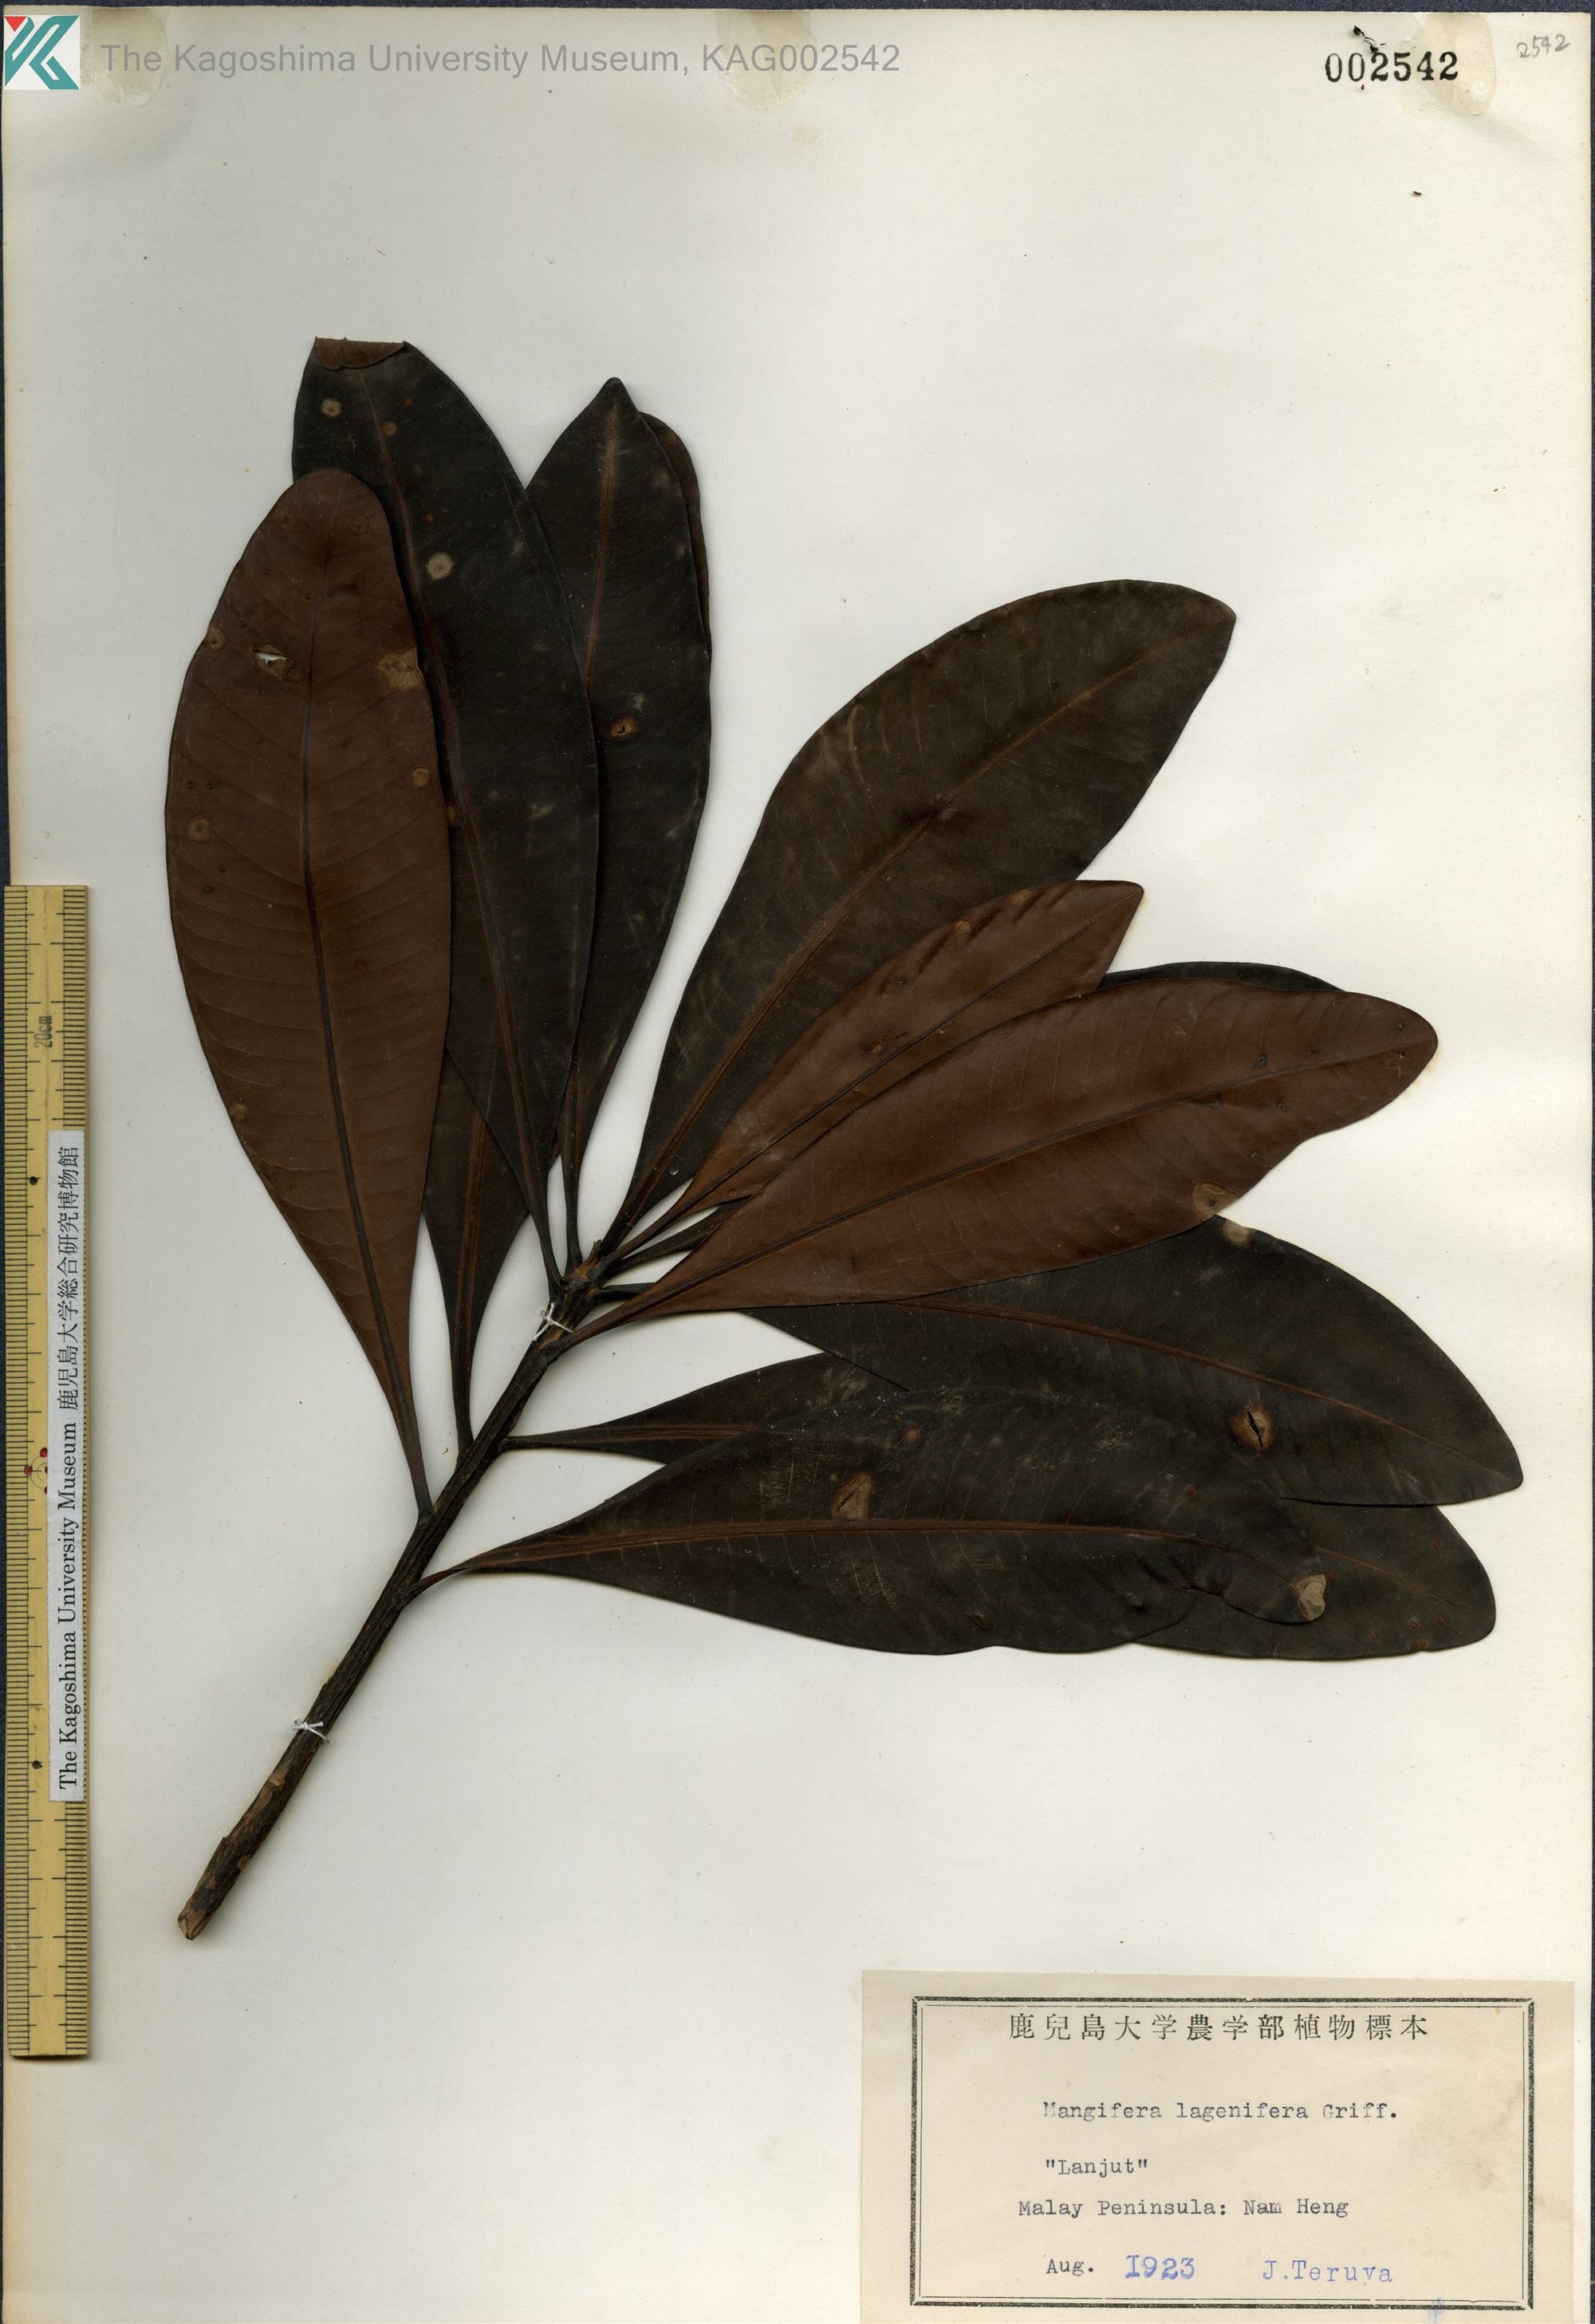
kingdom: Plantae
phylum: Tracheophyta
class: Magnoliopsida
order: Sapindales
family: Anacardiaceae
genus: Mangifera
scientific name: Mangifera lagenifera
